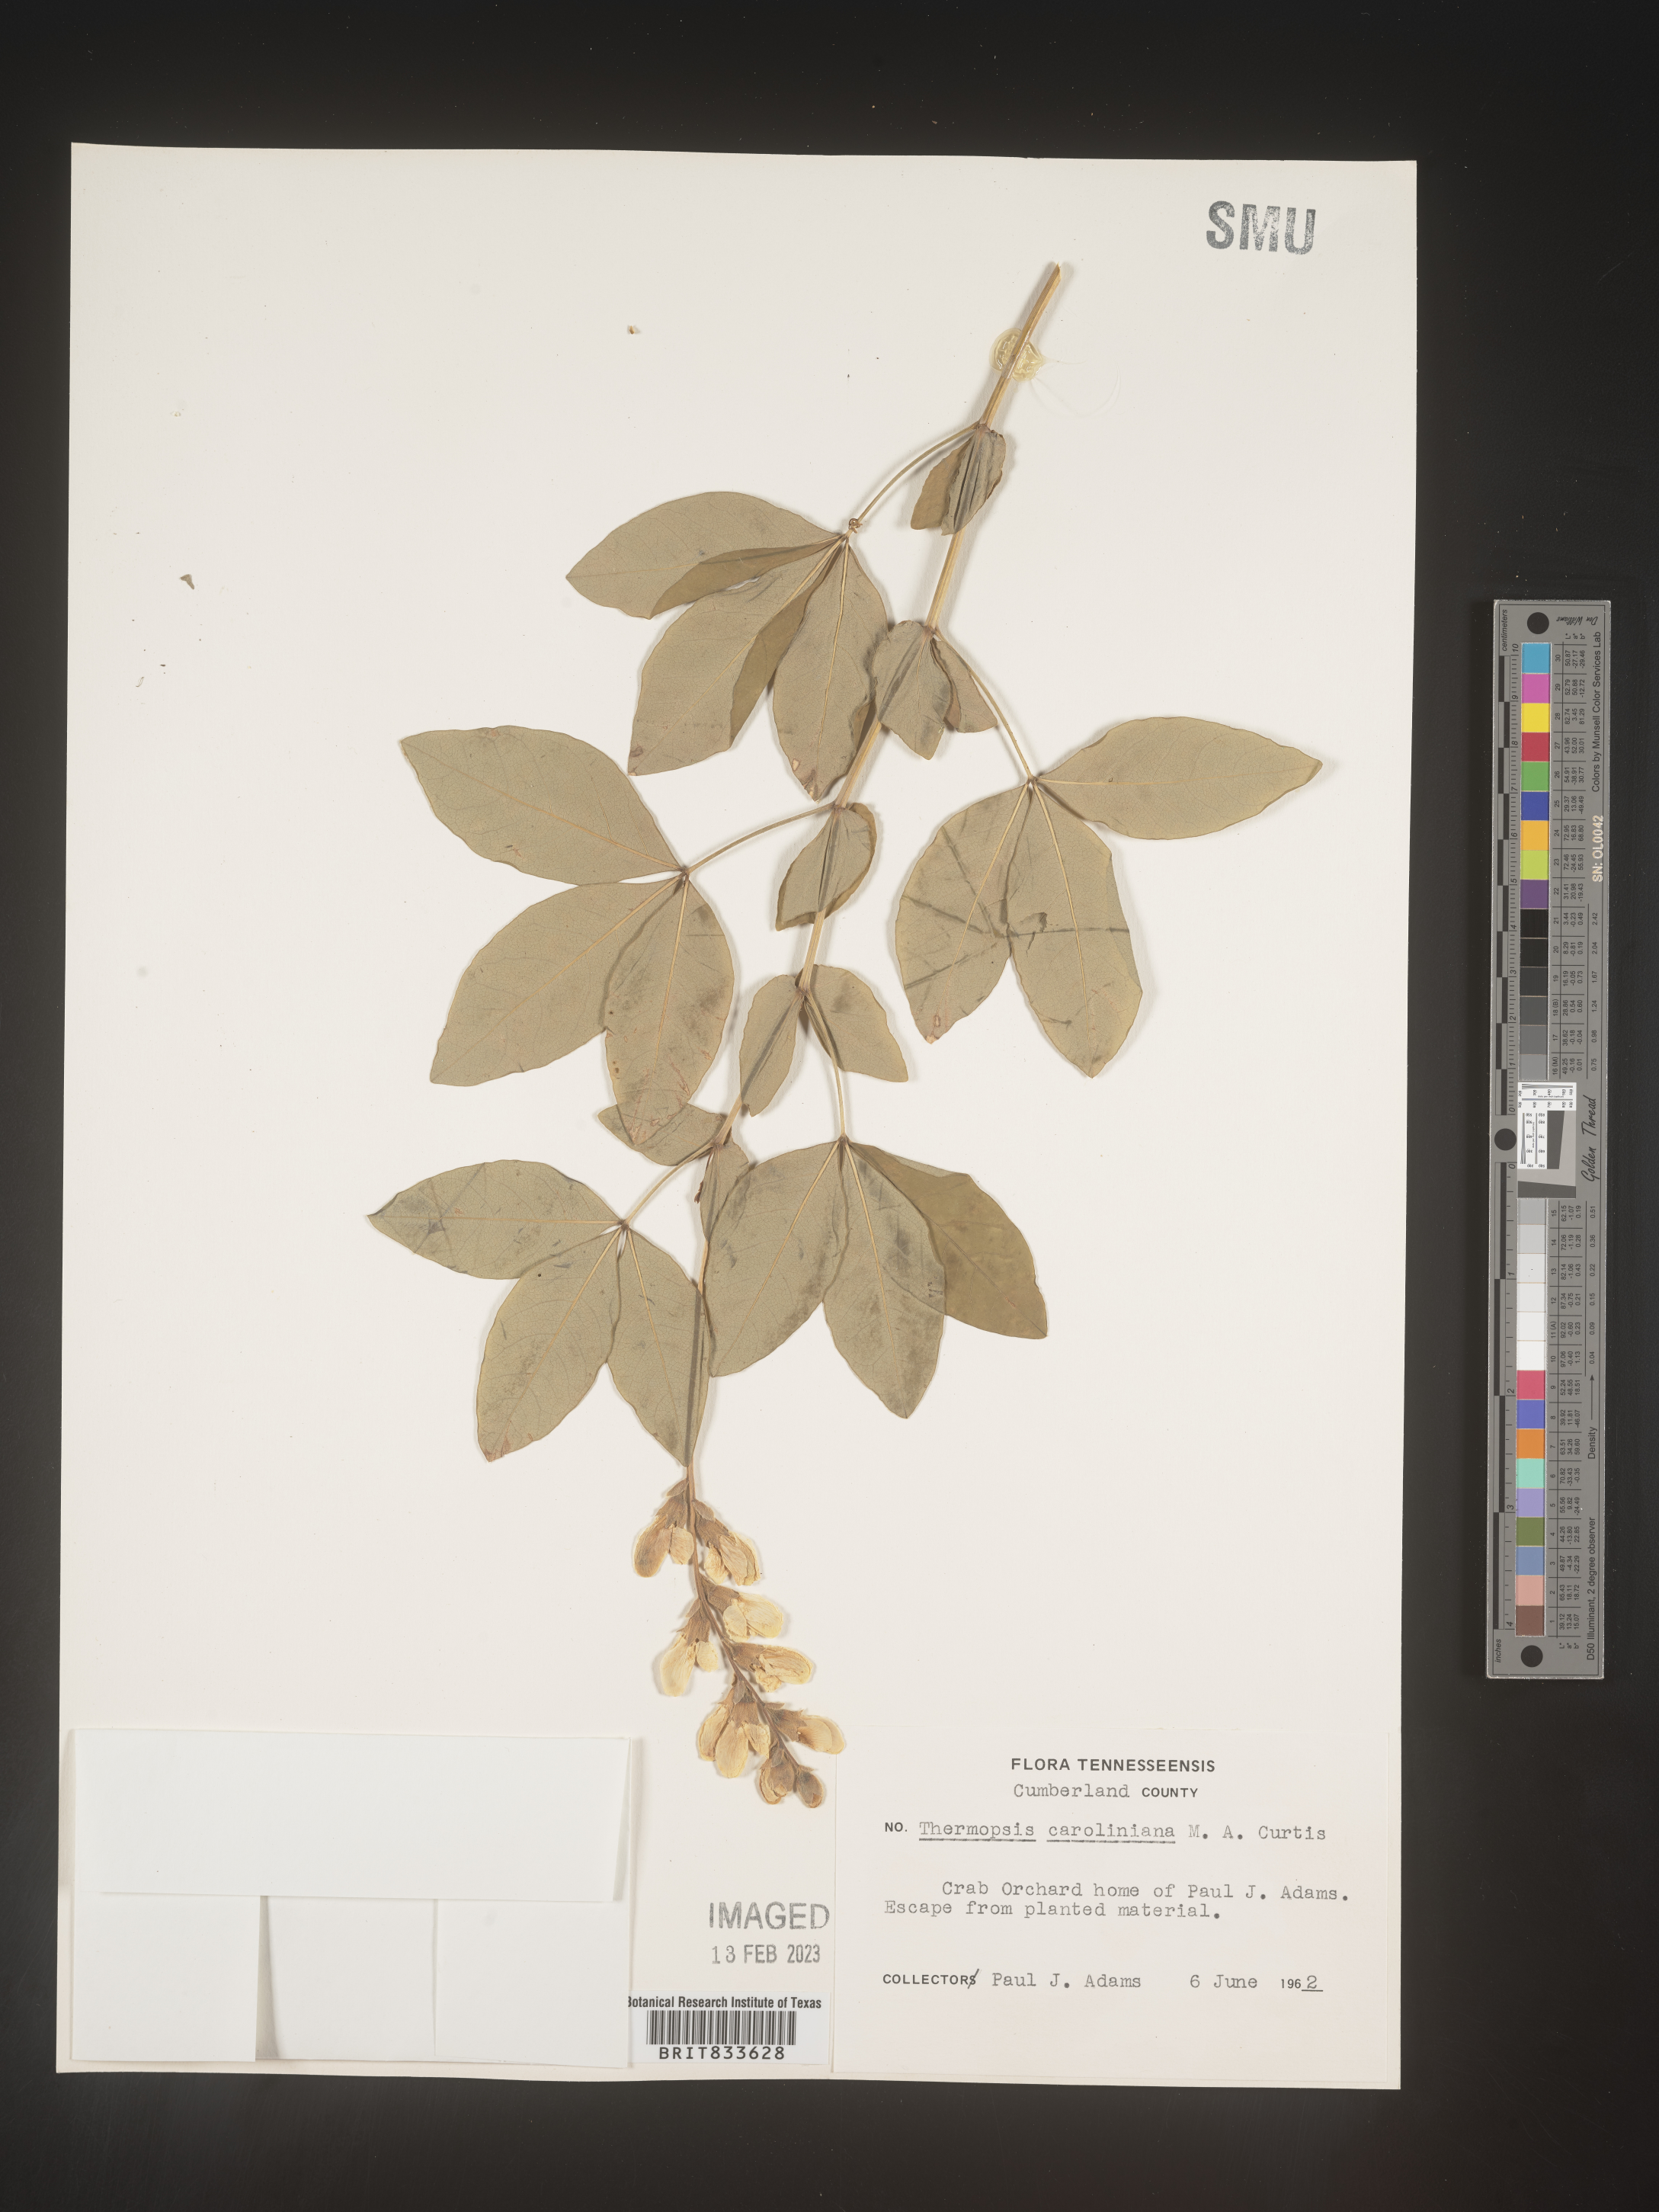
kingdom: Plantae
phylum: Tracheophyta
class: Magnoliopsida
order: Fabales
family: Fabaceae
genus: Thermopsis
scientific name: Thermopsis villosa
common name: Carolina-lupin
